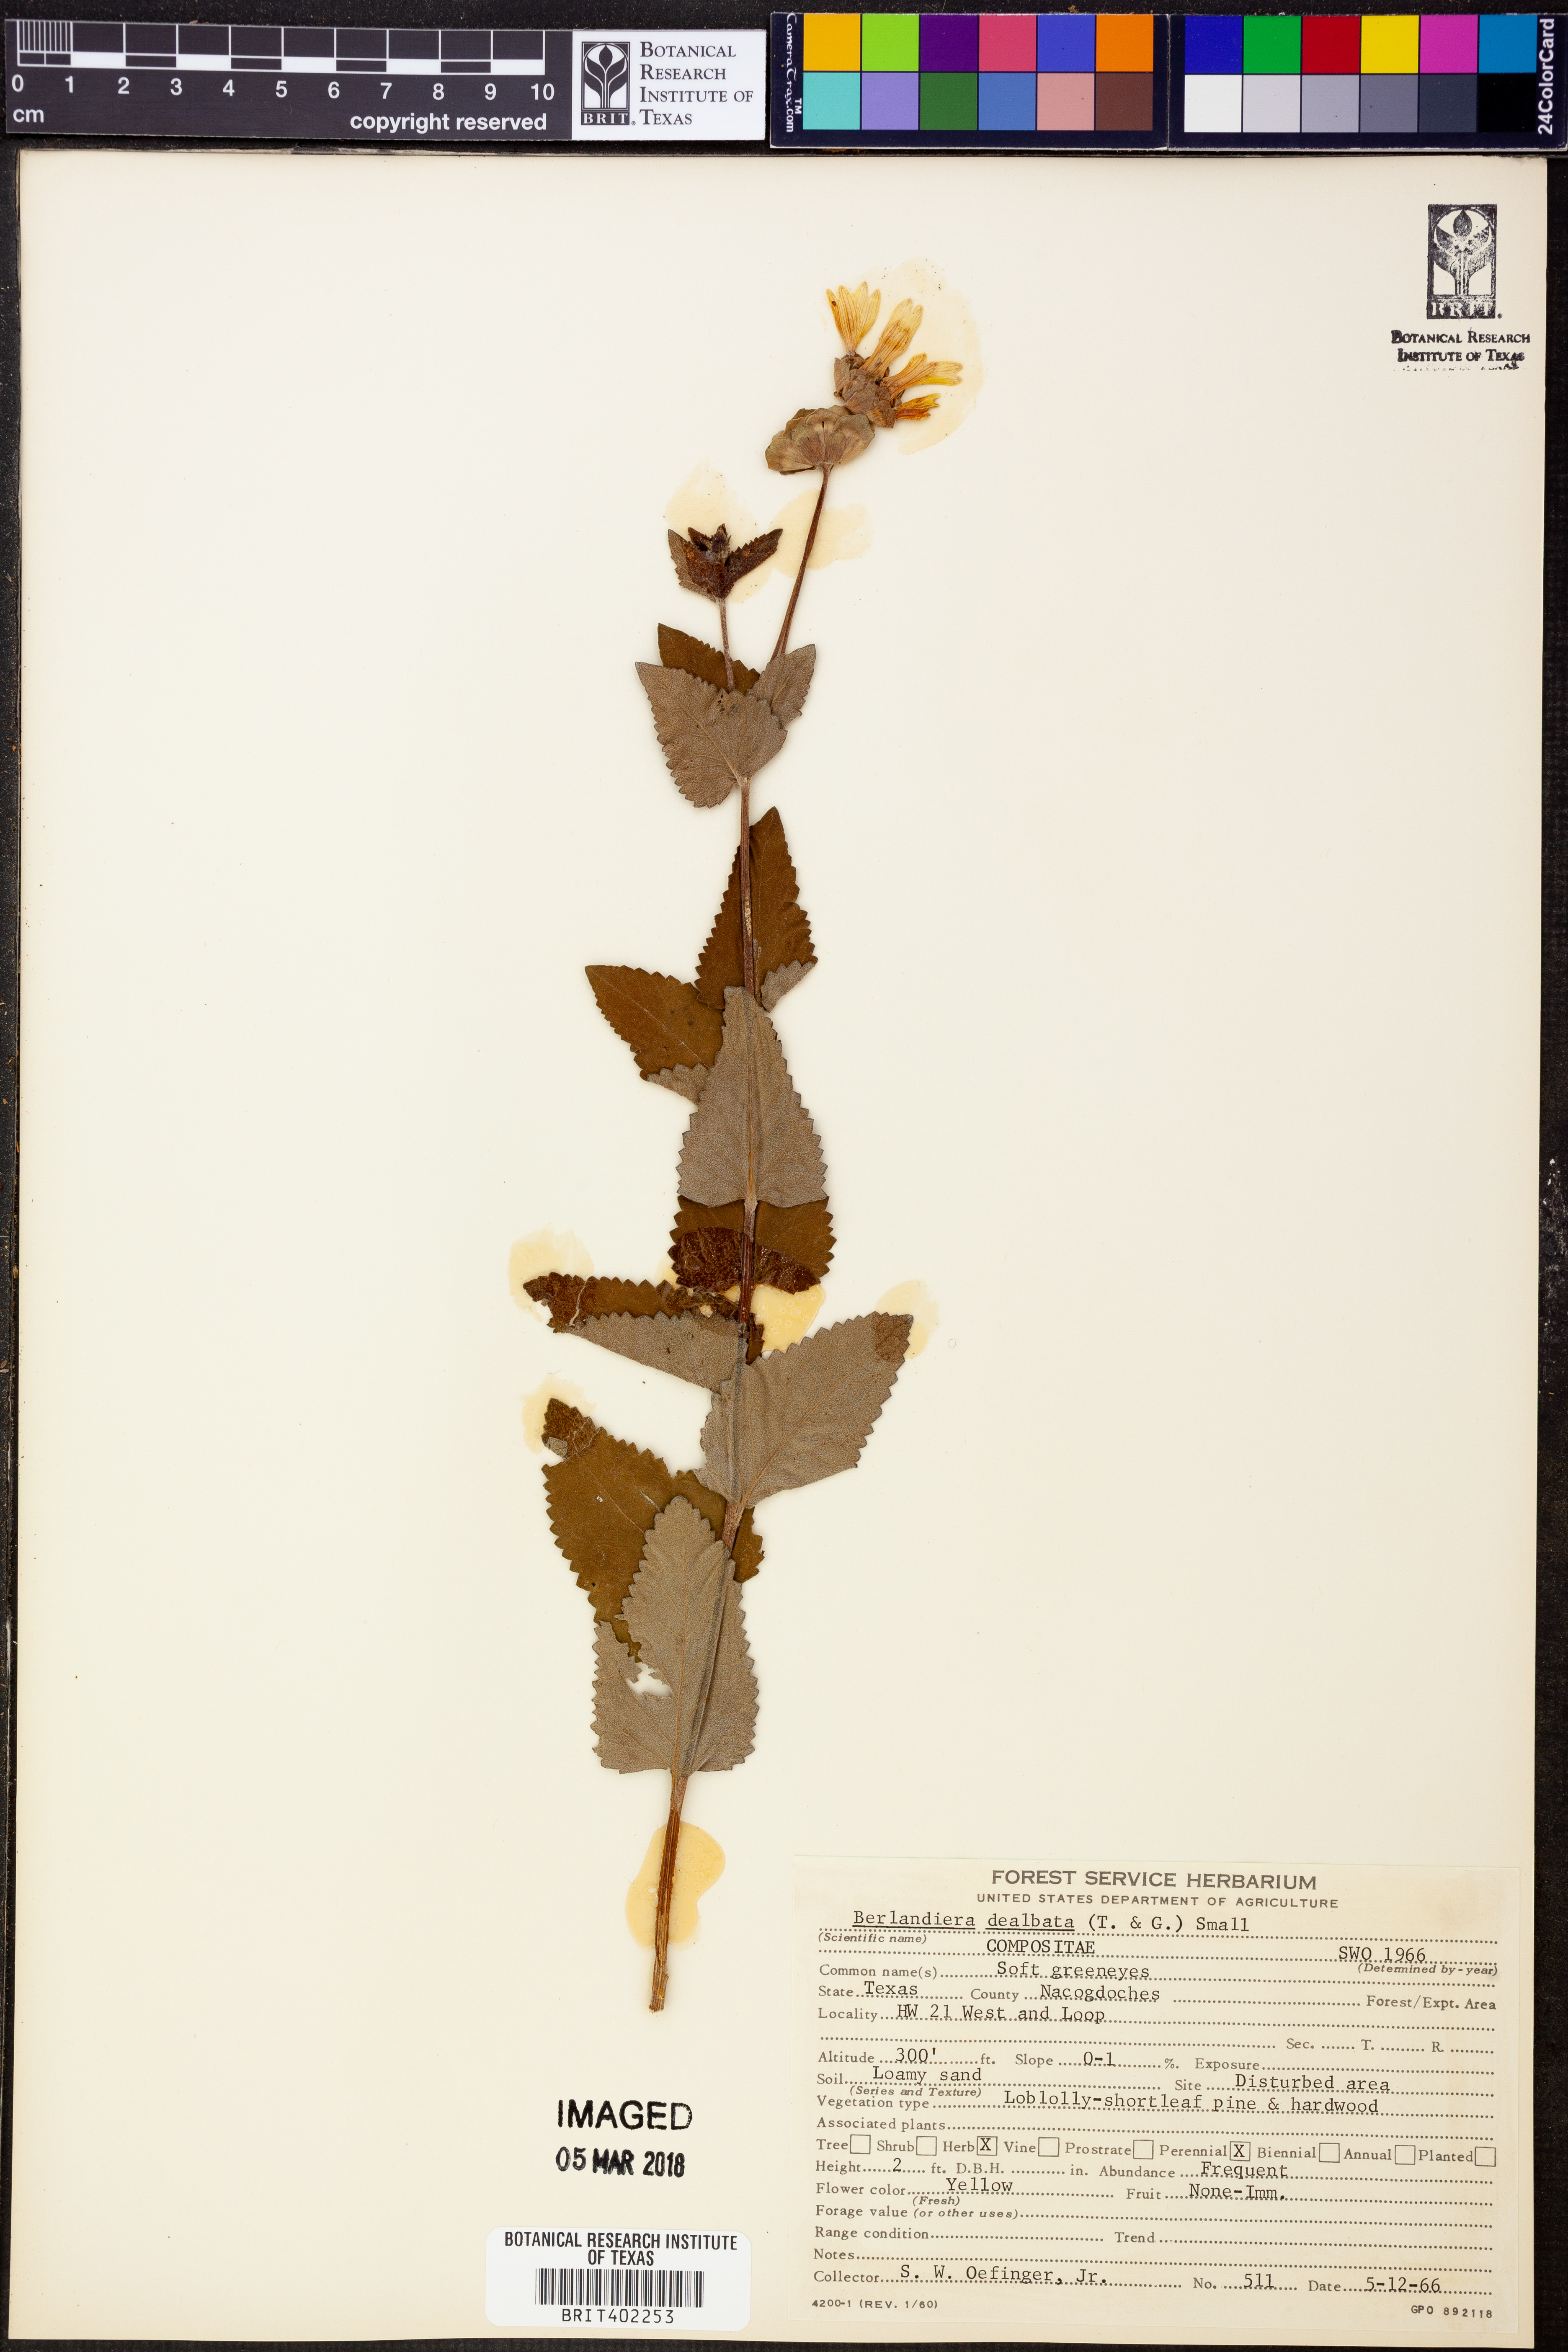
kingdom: Plantae
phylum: Tracheophyta
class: Magnoliopsida
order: Asterales
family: Asteraceae
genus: Berlandiera
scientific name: Berlandiera pumila
